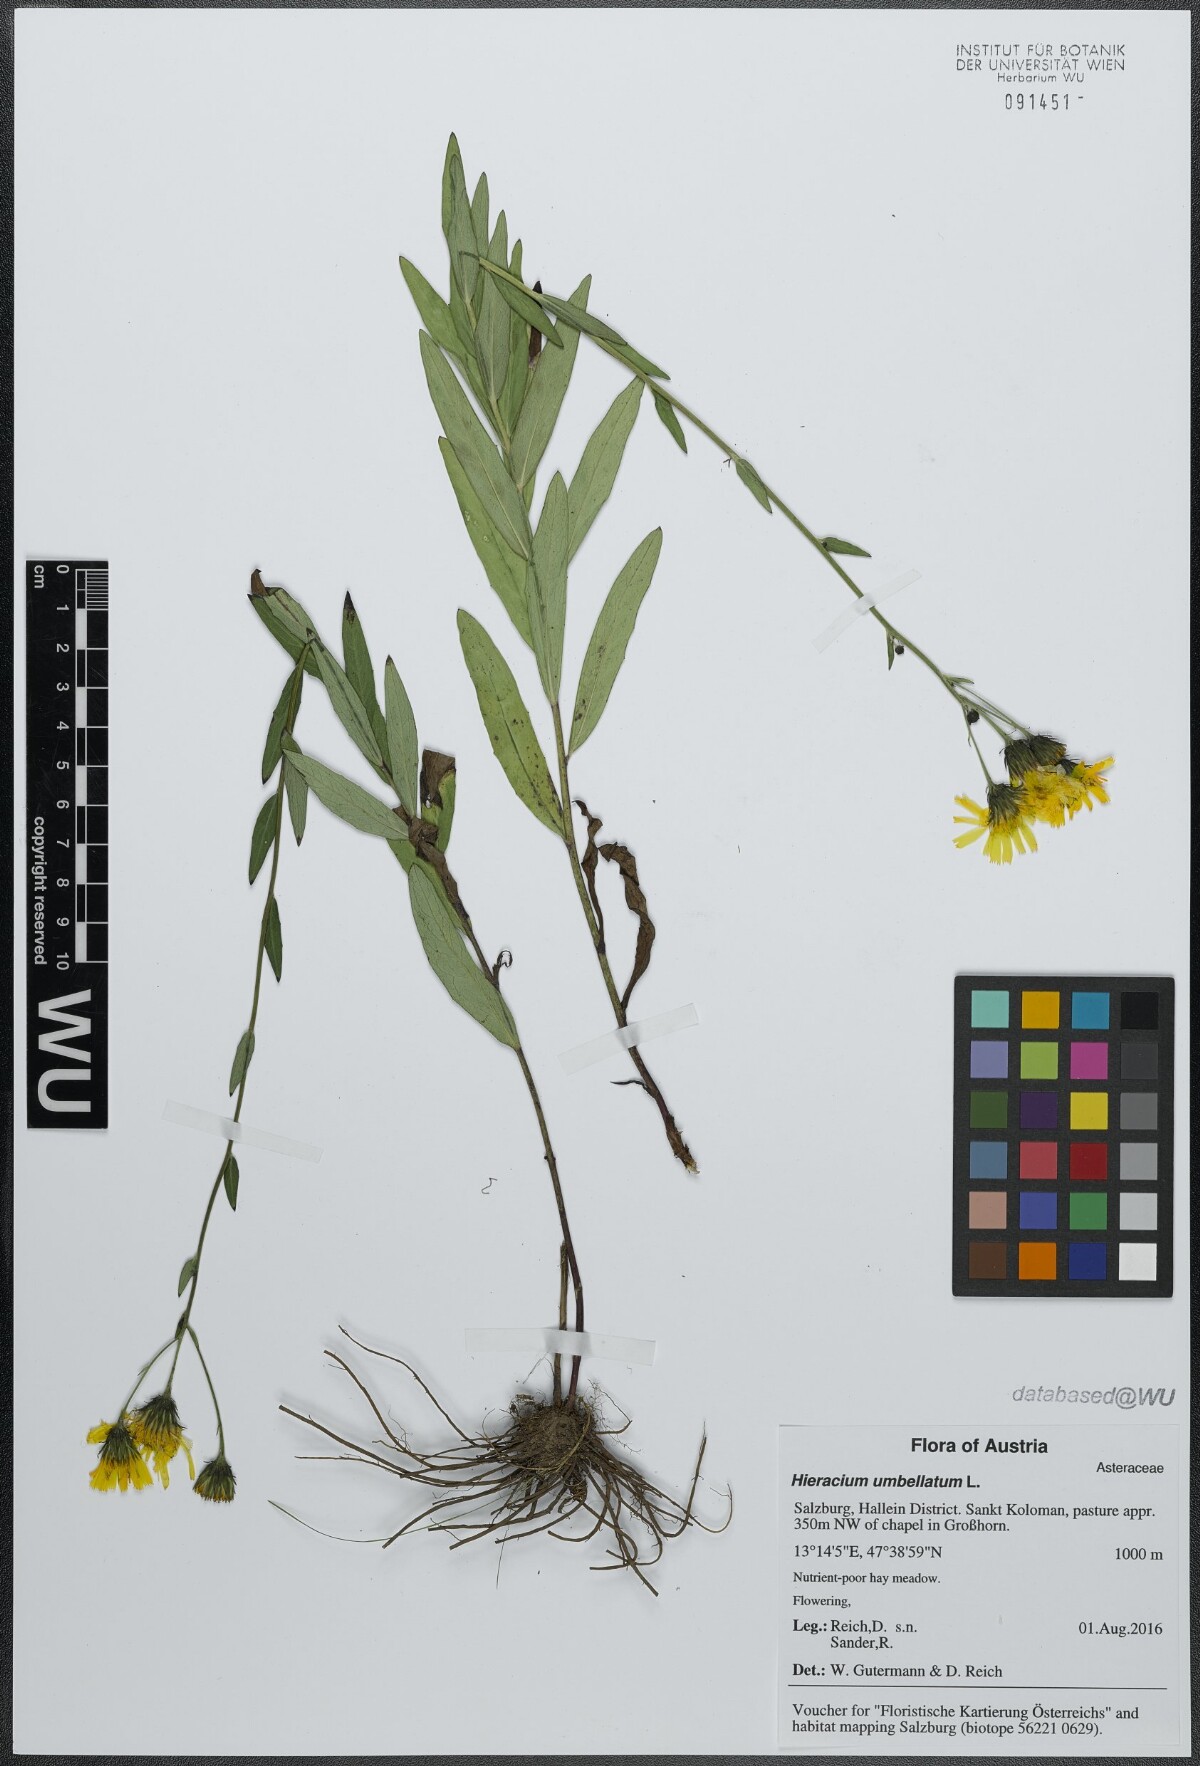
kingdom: Plantae
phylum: Tracheophyta
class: Magnoliopsida
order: Asterales
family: Asteraceae
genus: Hieracium
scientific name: Hieracium umbellatum
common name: Northern hawkweed
